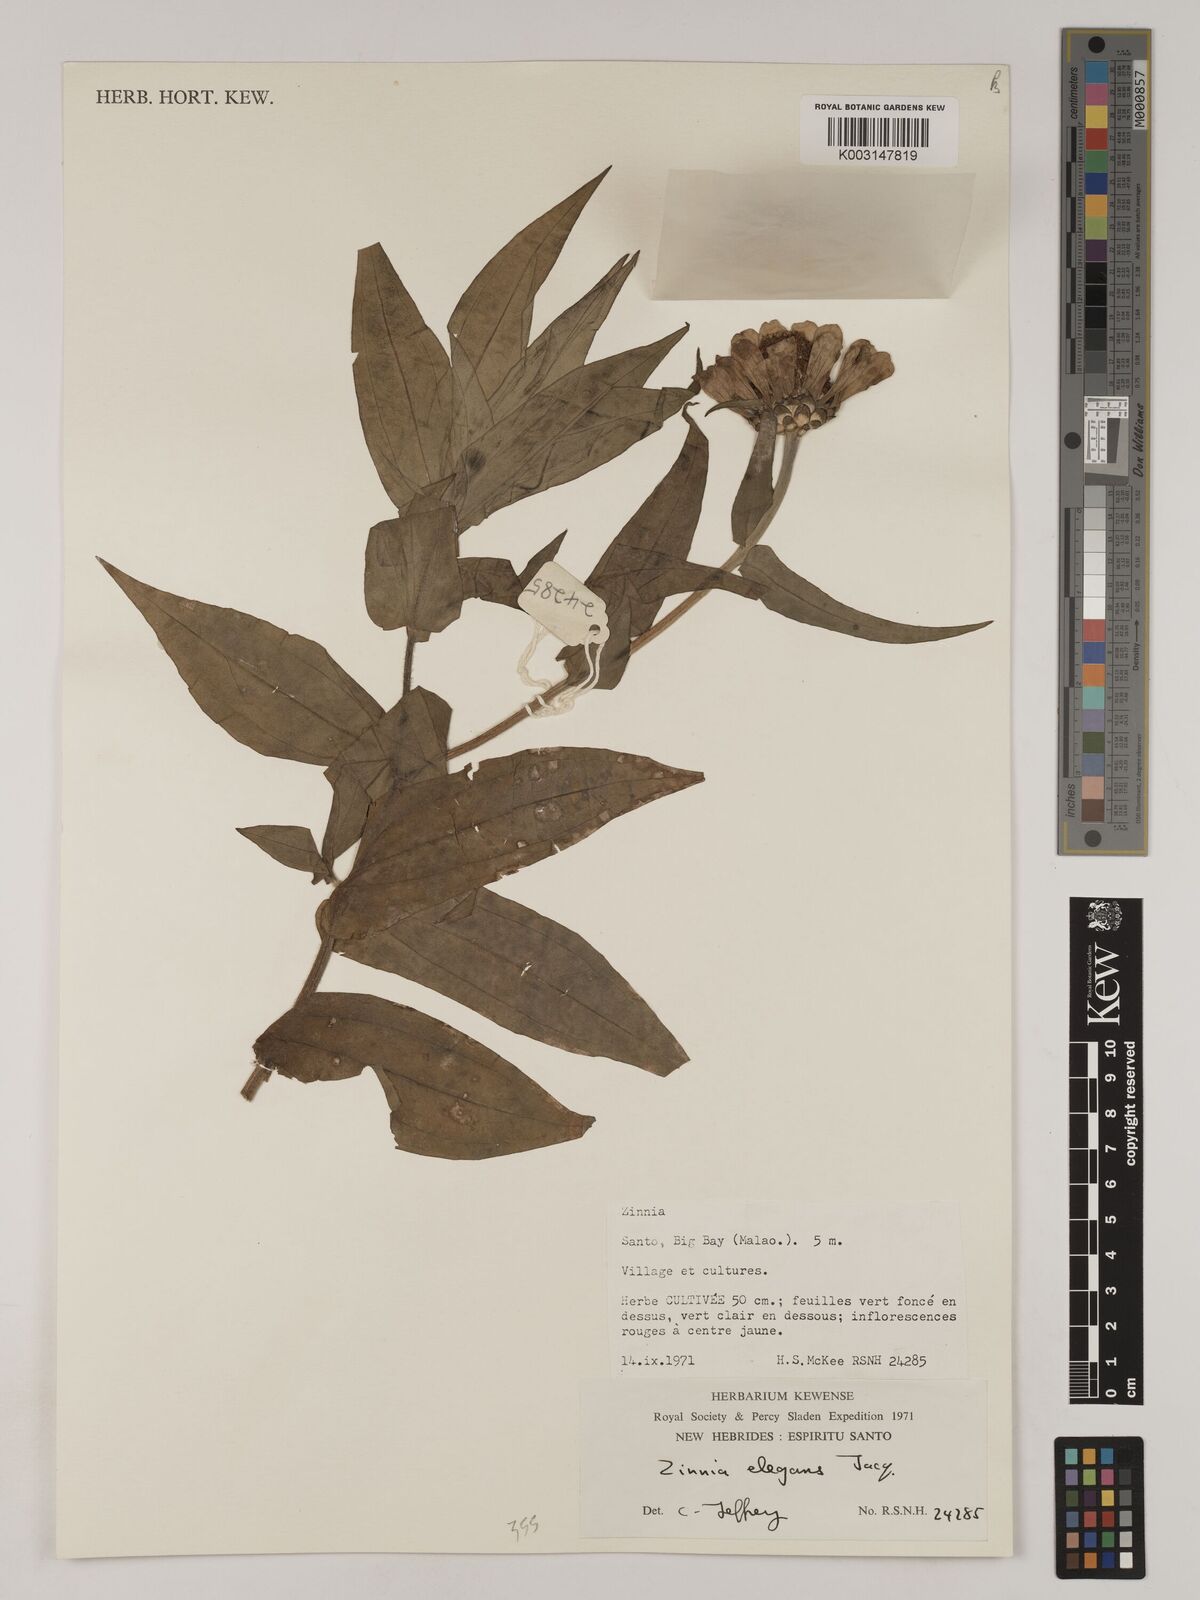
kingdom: Plantae
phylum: Tracheophyta
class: Magnoliopsida
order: Asterales
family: Asteraceae
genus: Zinnia
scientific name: Zinnia elegans
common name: Youth-and-age
